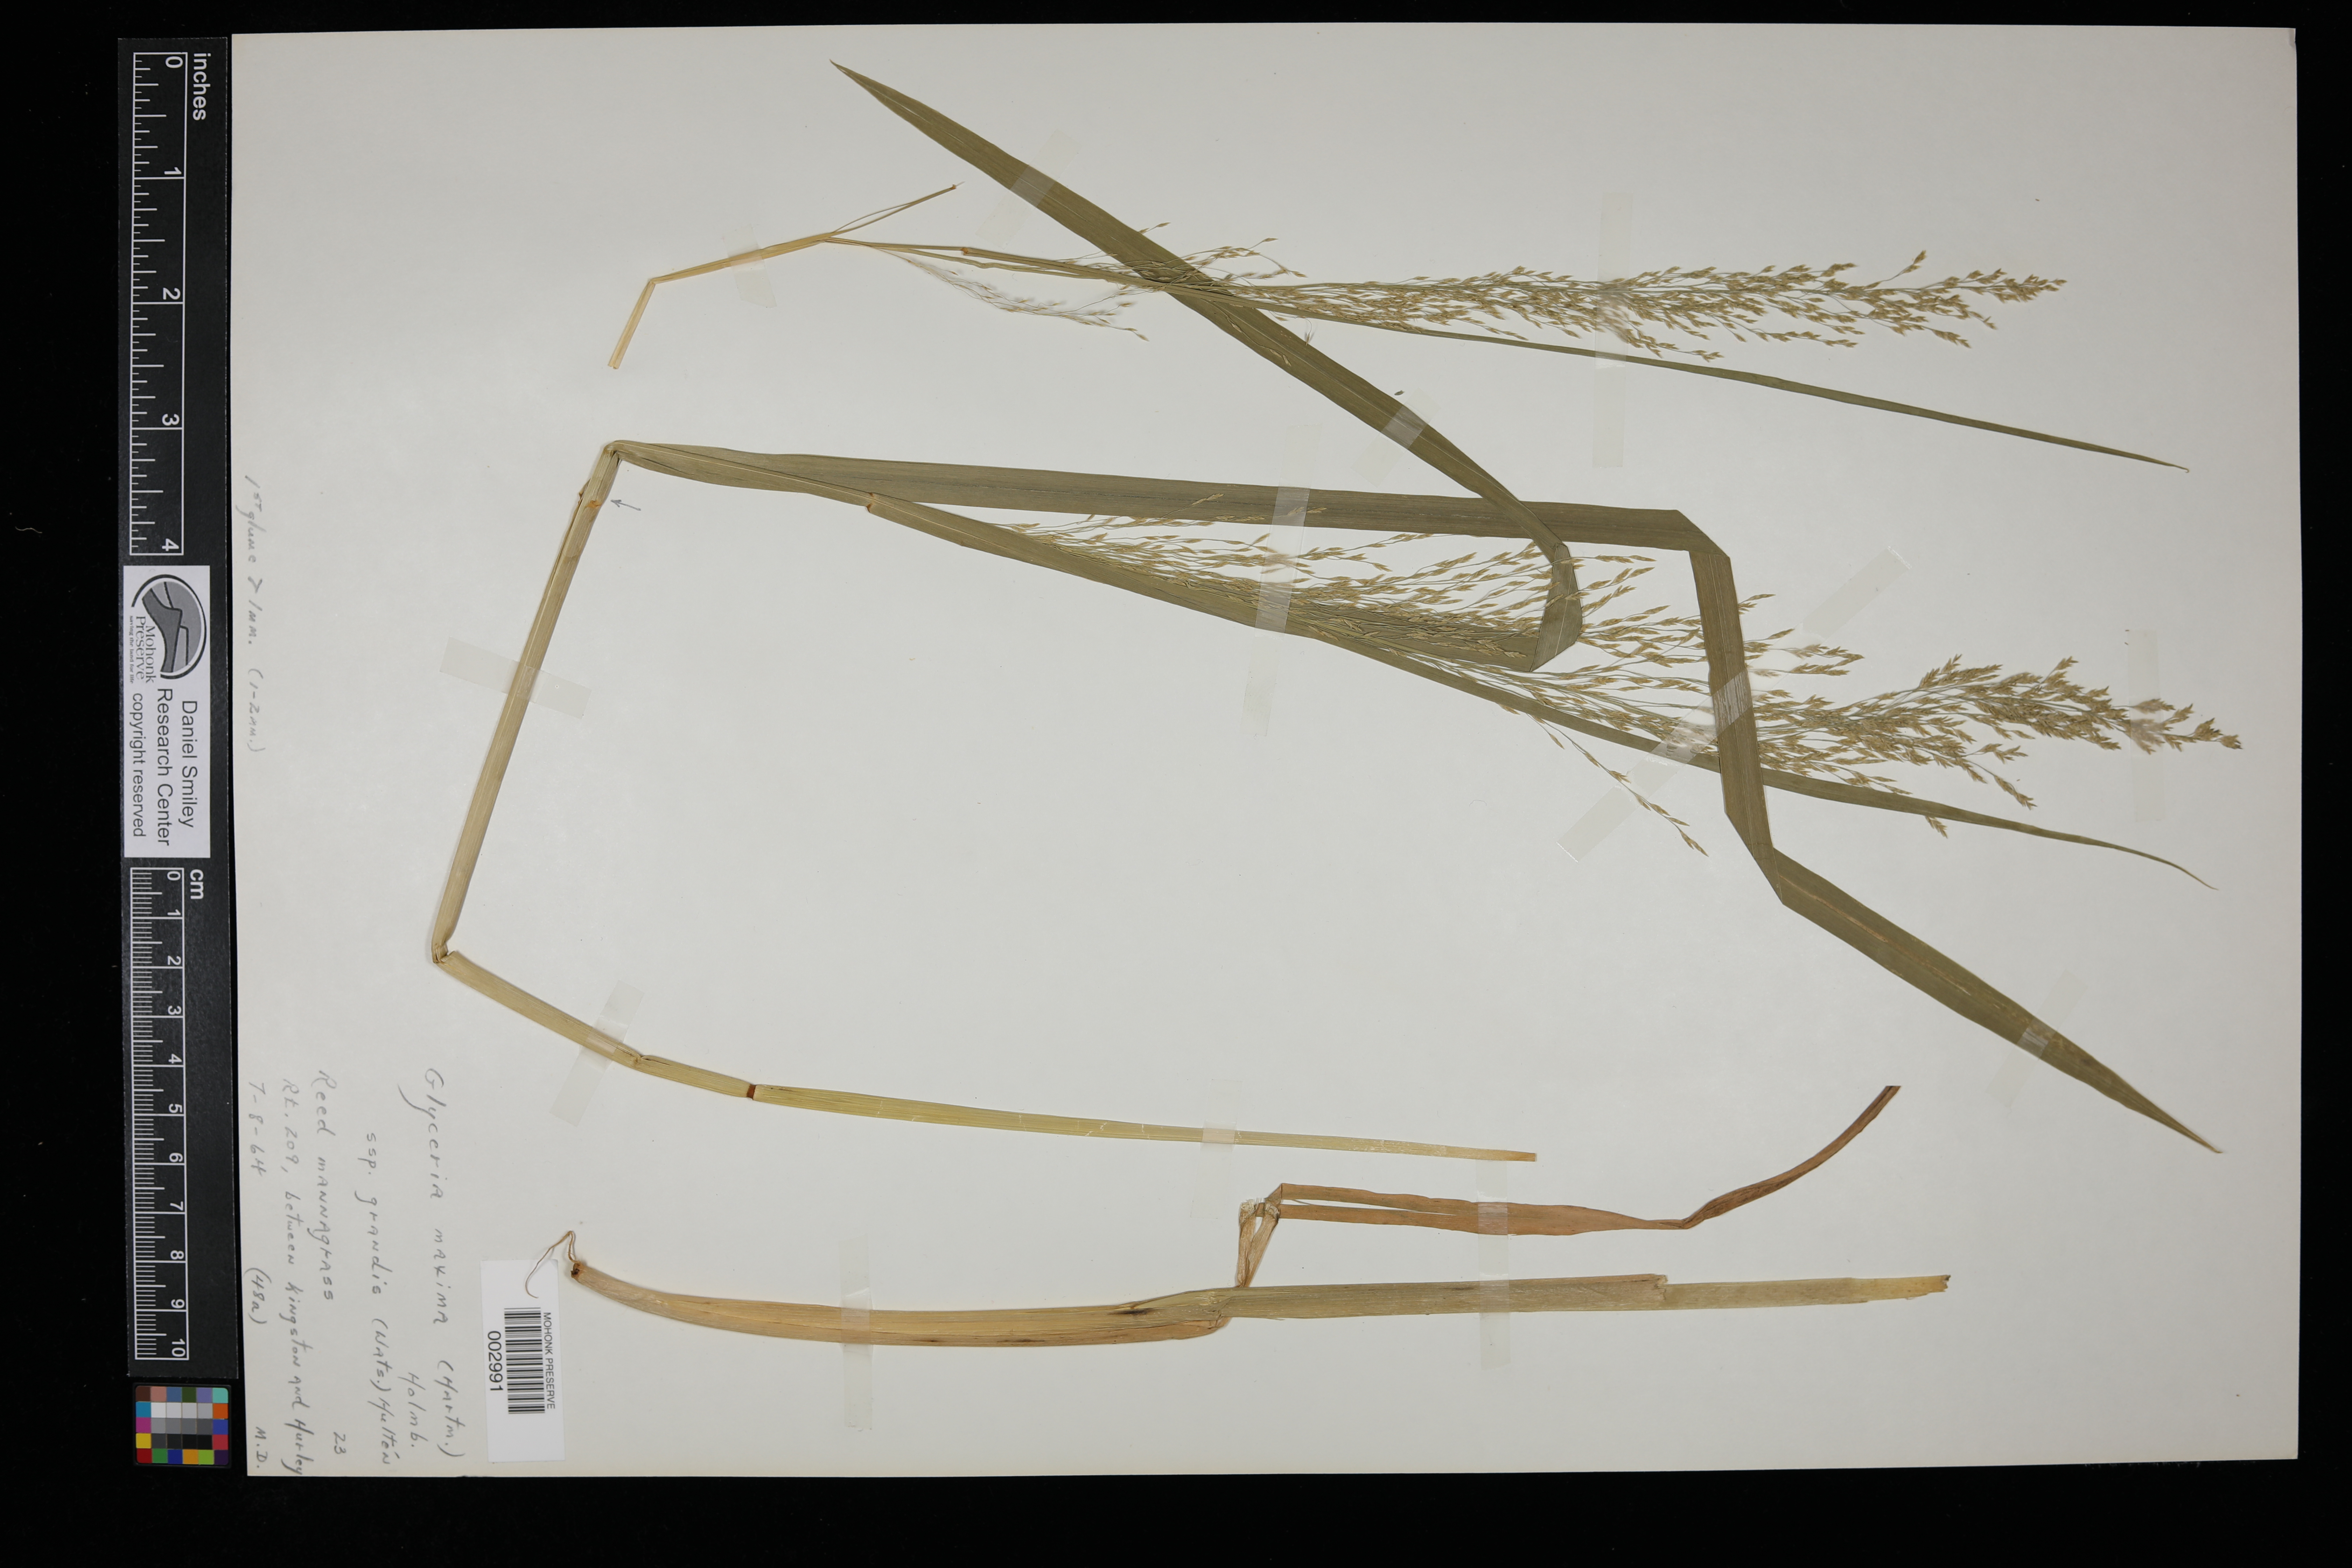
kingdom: Plantae
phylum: Tracheophyta
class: Liliopsida
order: Poales
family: Poaceae
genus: Glyceria
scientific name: Glyceria maxima
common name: Reed mannagrass
